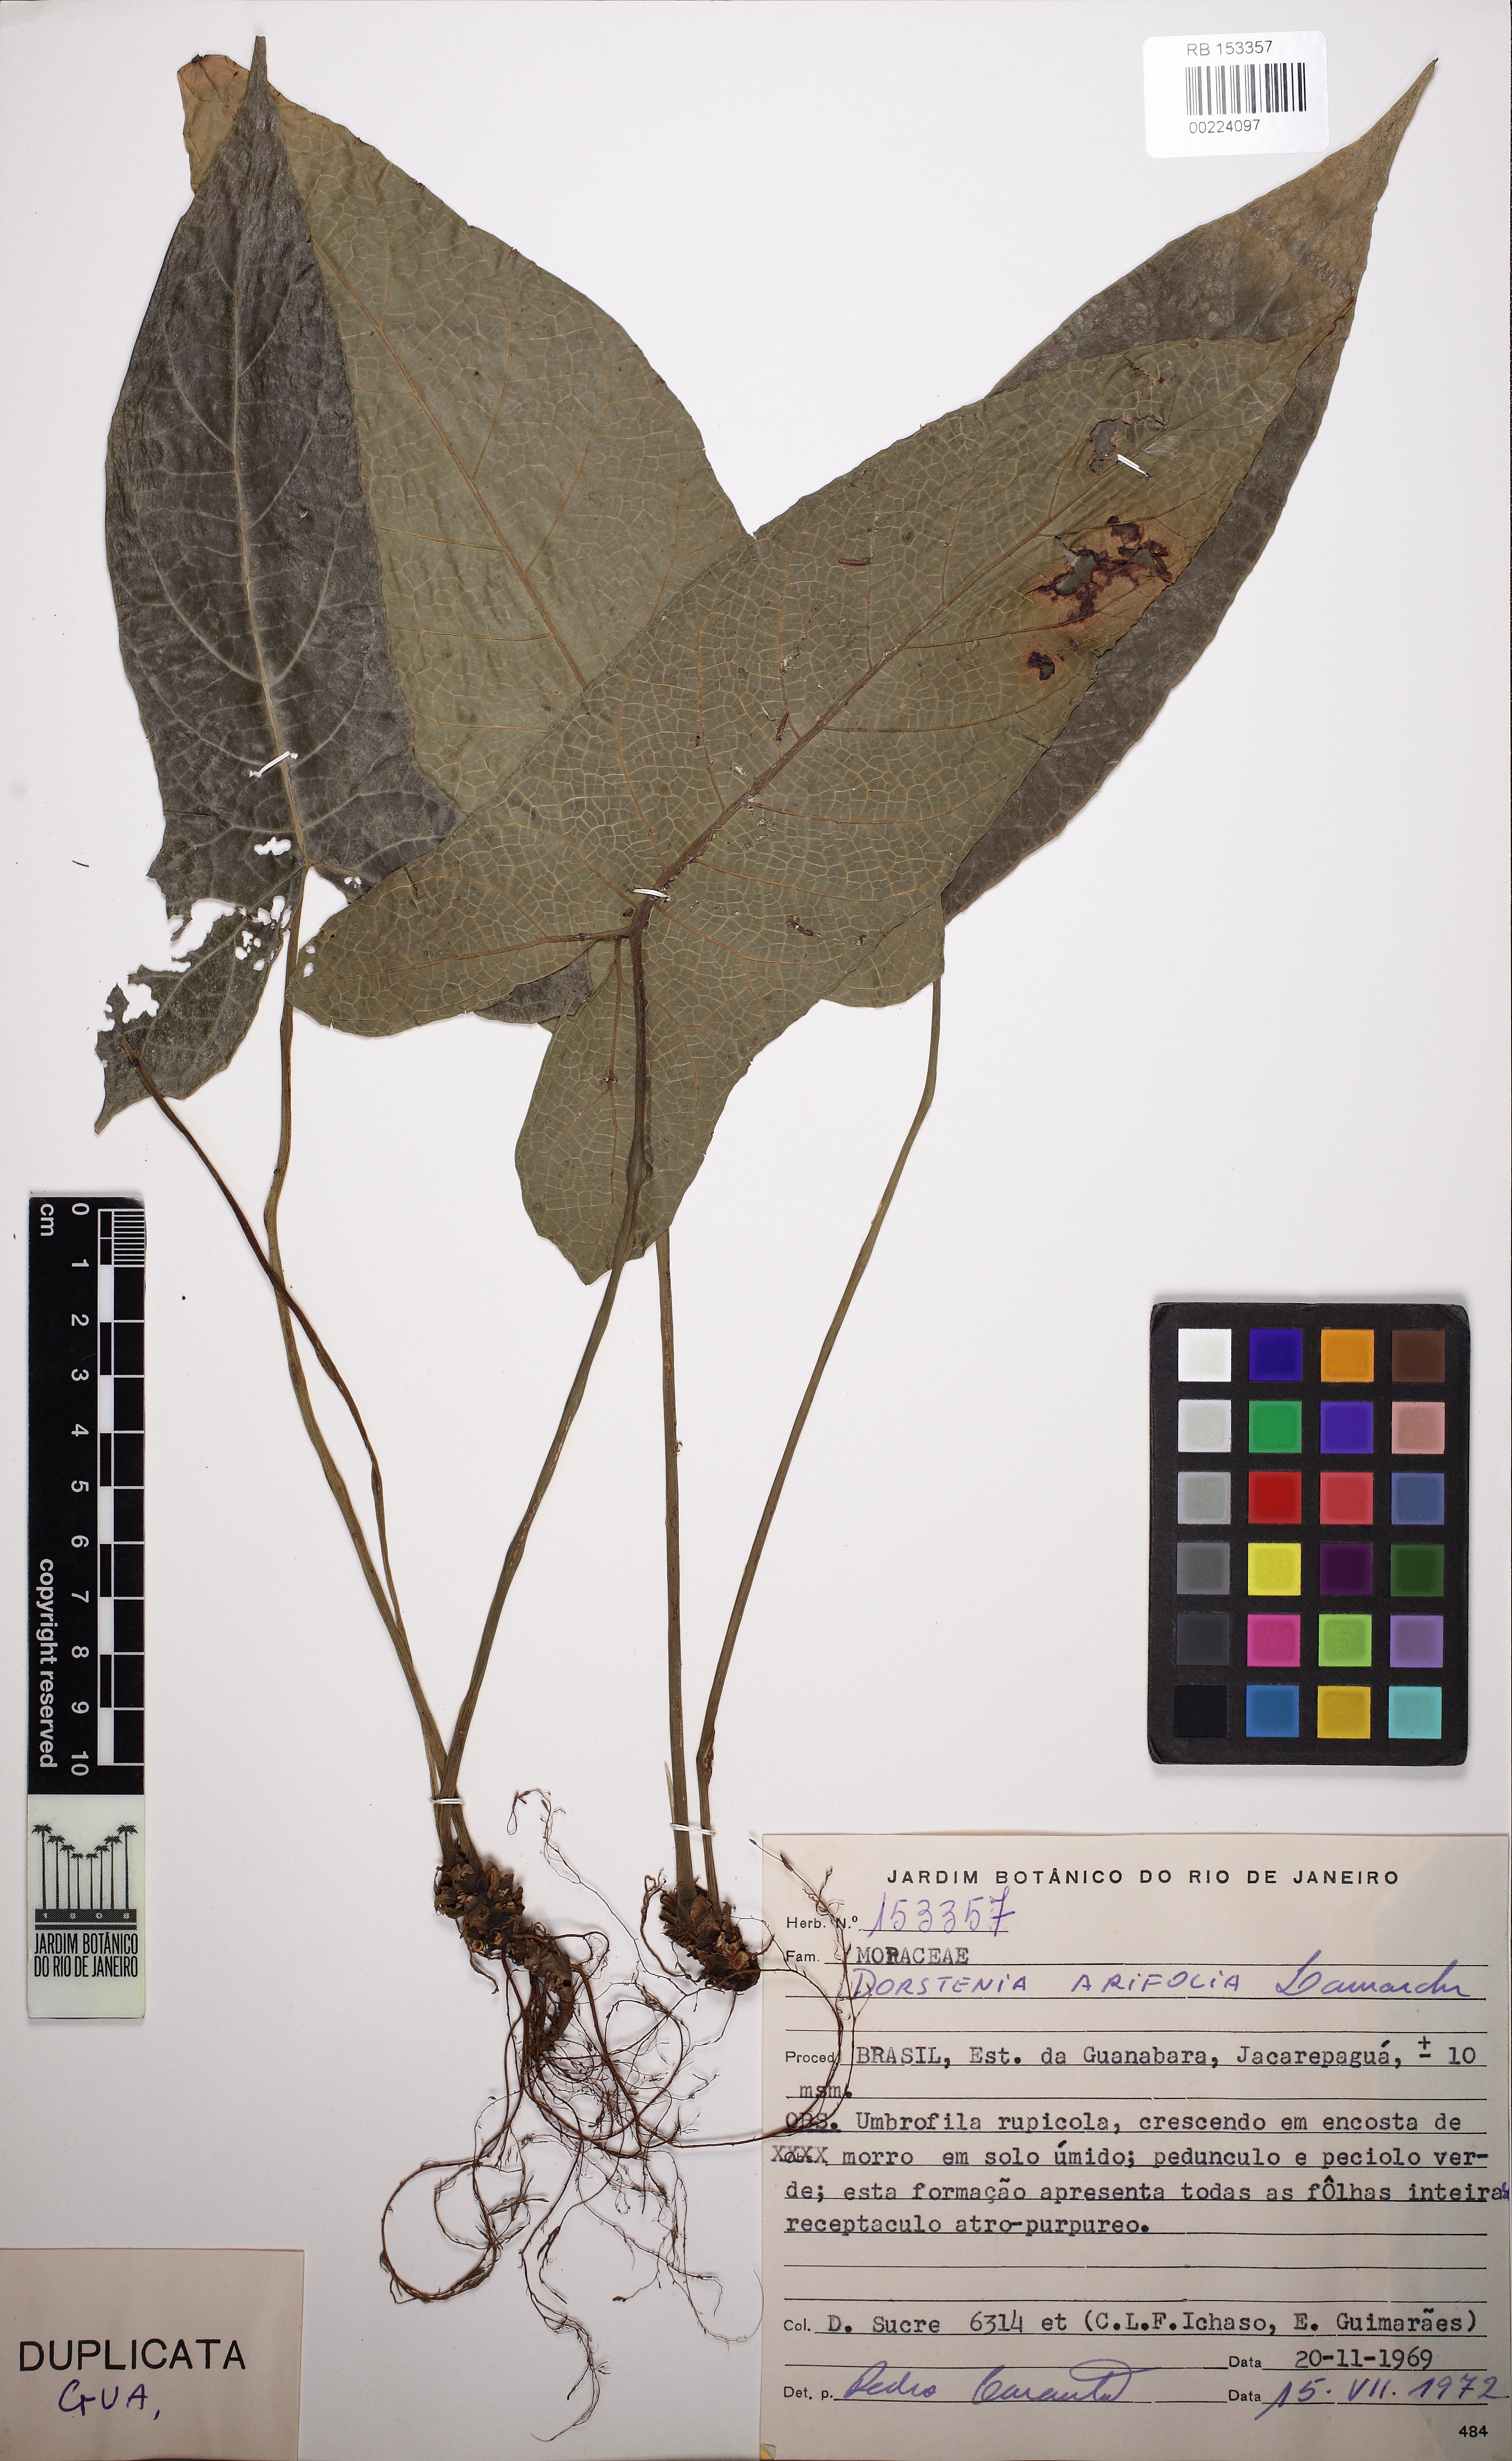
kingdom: Plantae
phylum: Tracheophyta
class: Magnoliopsida
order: Rosales
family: Moraceae
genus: Dorstenia
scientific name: Dorstenia arifolia
